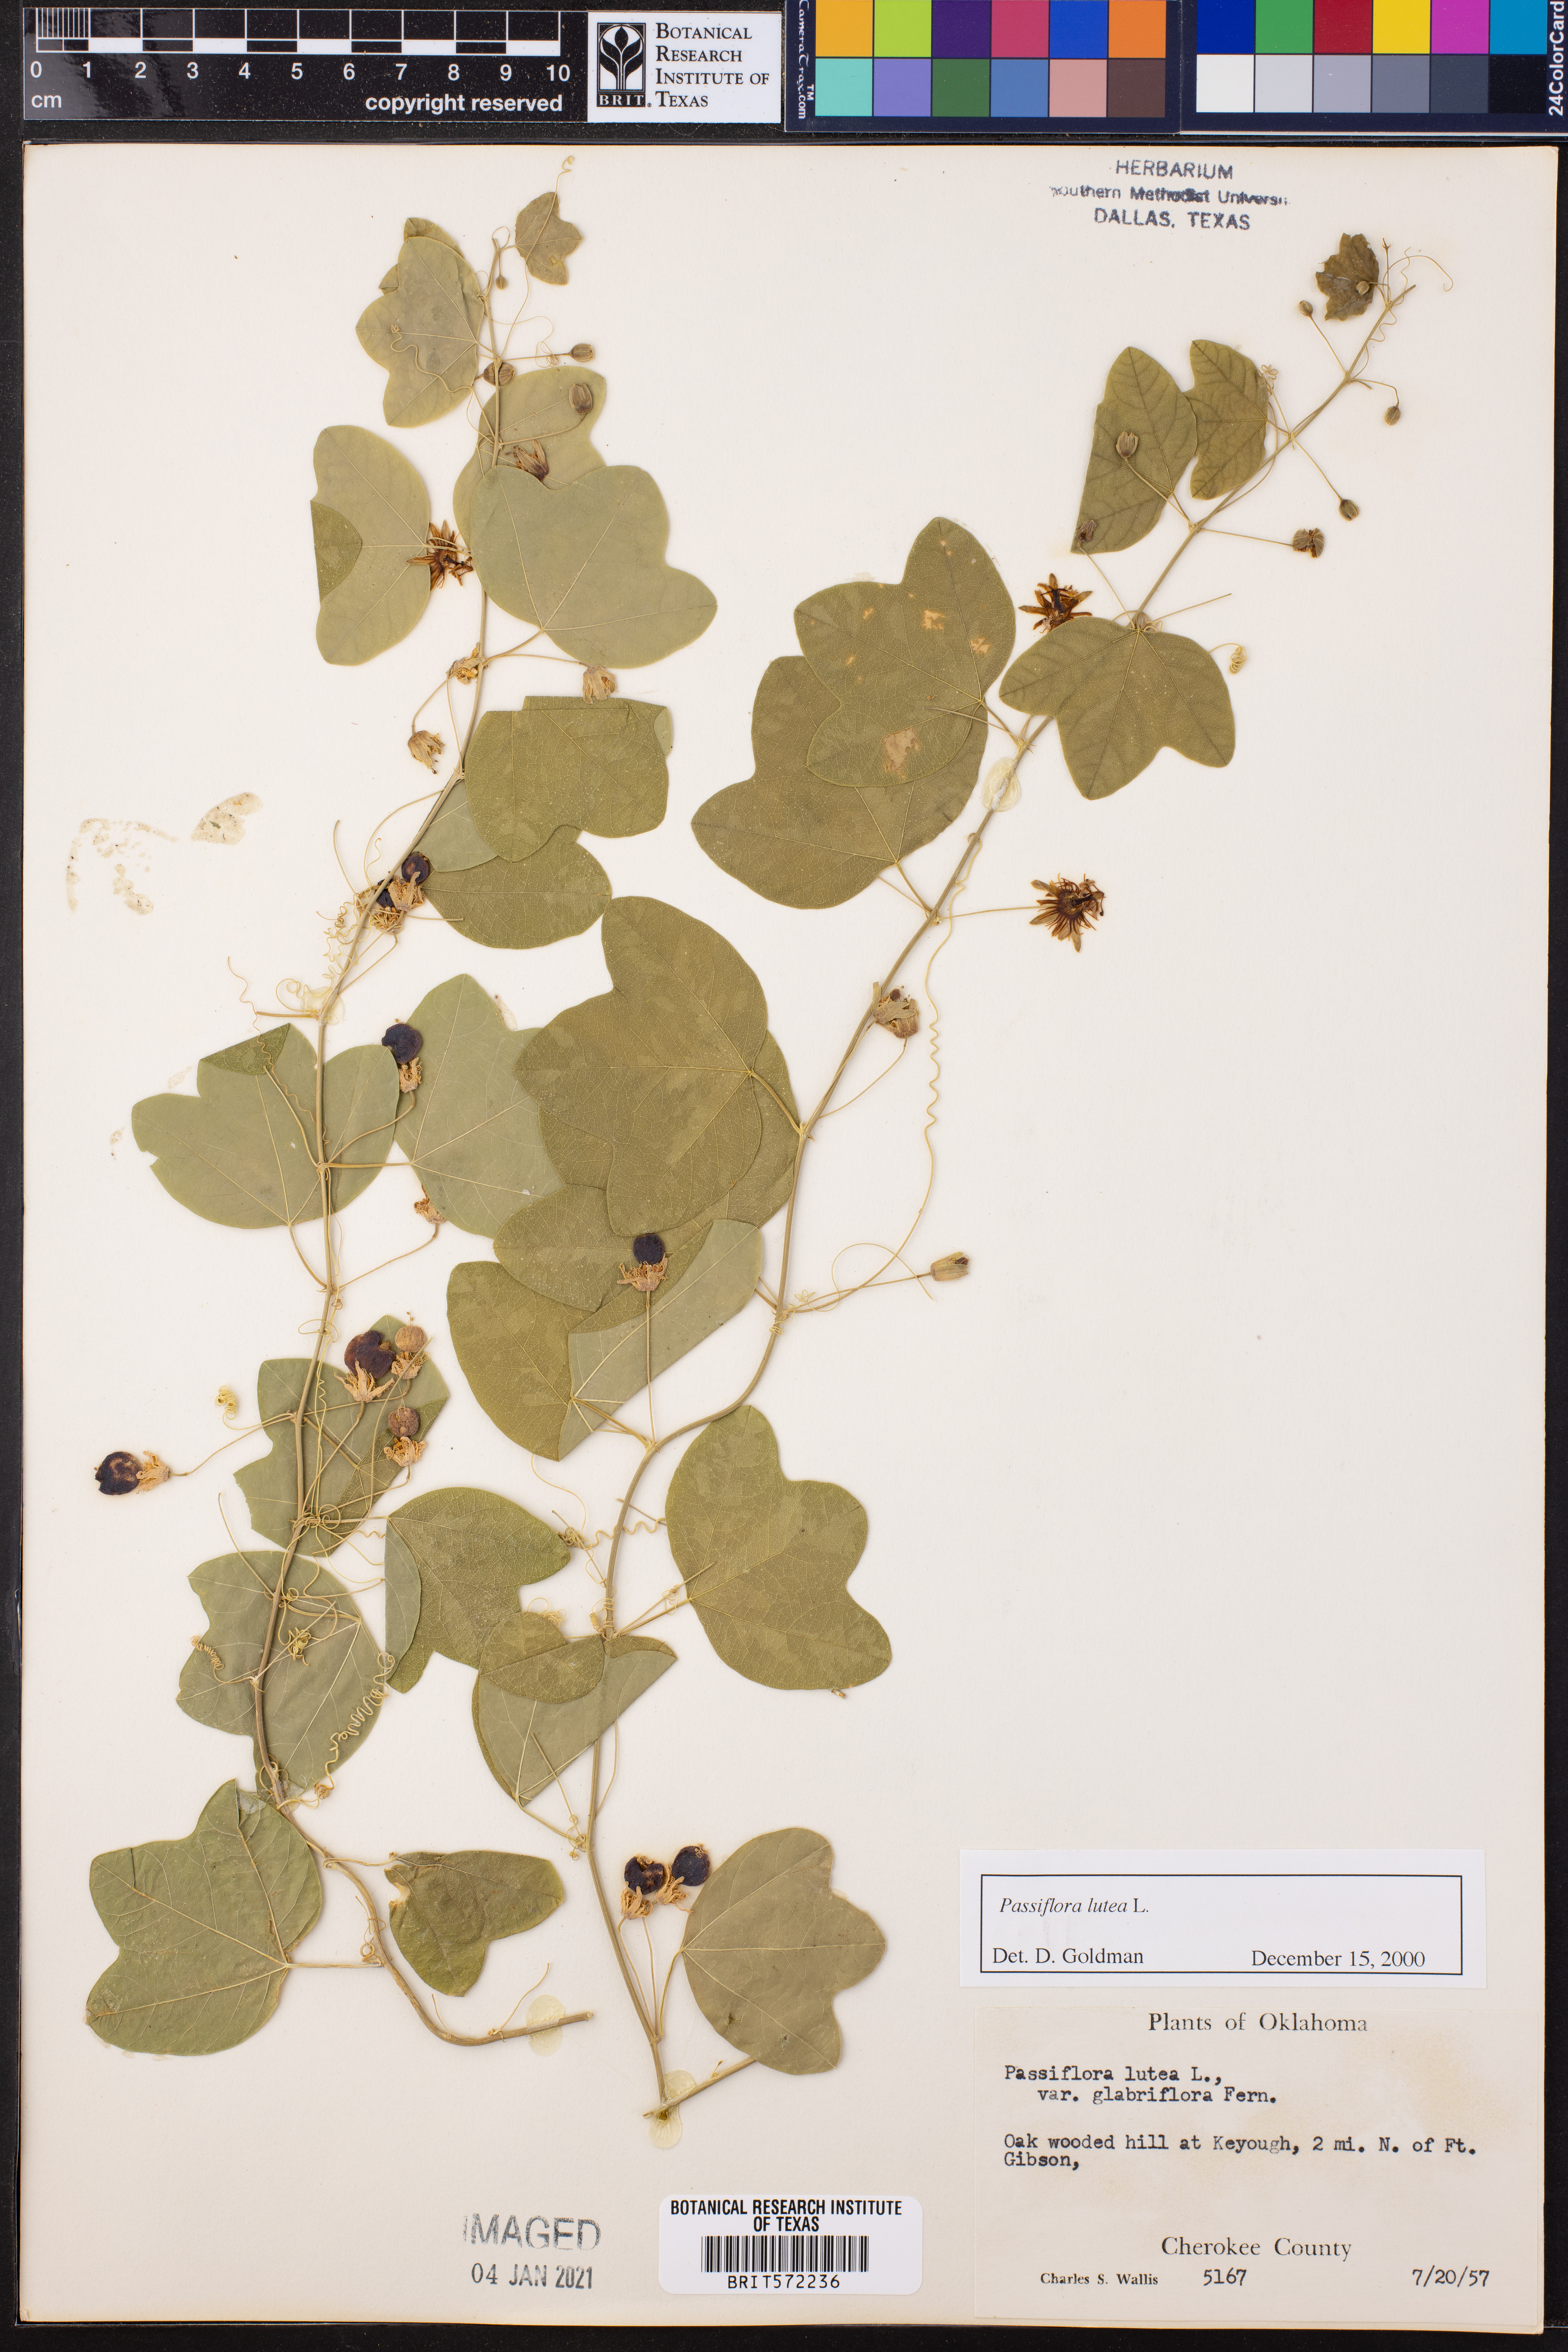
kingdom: Plantae
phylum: Tracheophyta
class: Magnoliopsida
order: Malpighiales
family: Passifloraceae
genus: Passiflora
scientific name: Passiflora lutea
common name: Yellow passionflower
